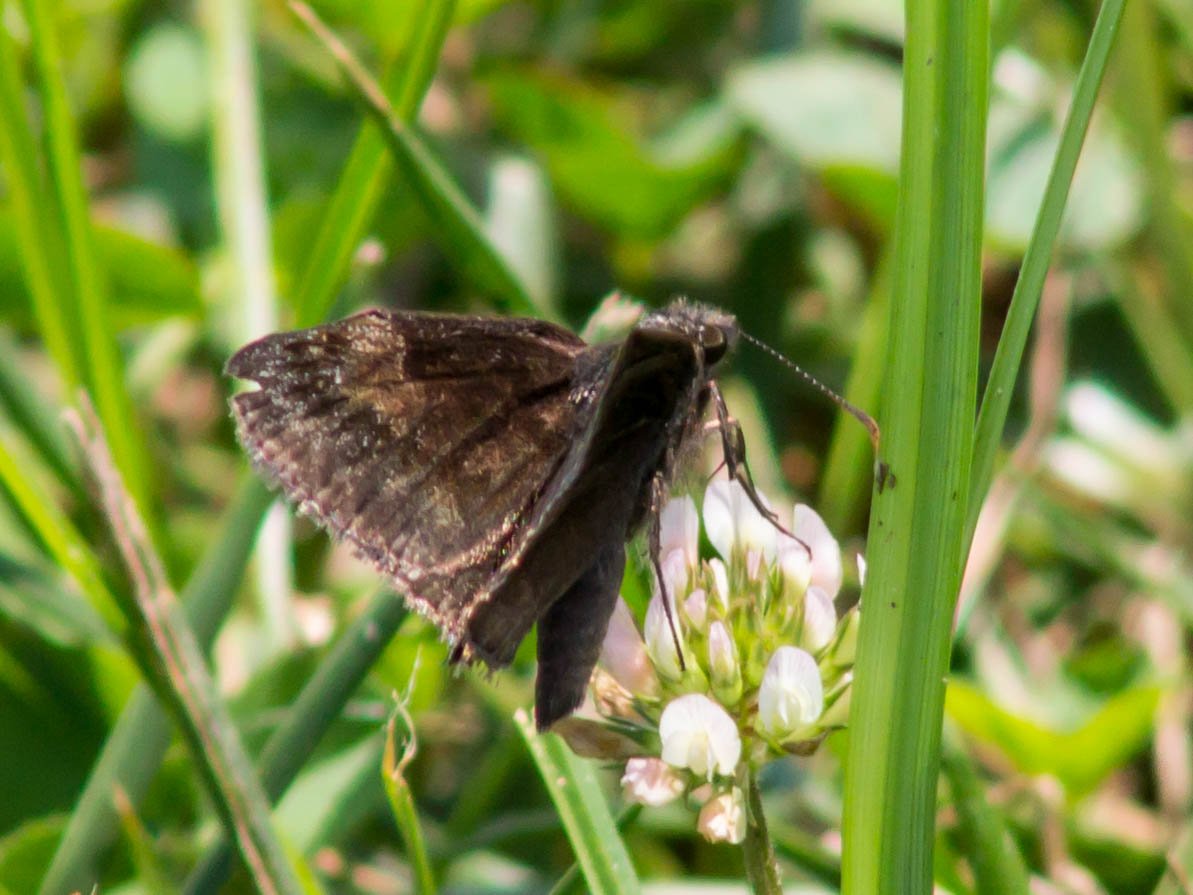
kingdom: Animalia
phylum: Arthropoda
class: Insecta
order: Lepidoptera
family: Hesperiidae
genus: Gesta
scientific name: Gesta
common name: Wild Indigo Duskywing
